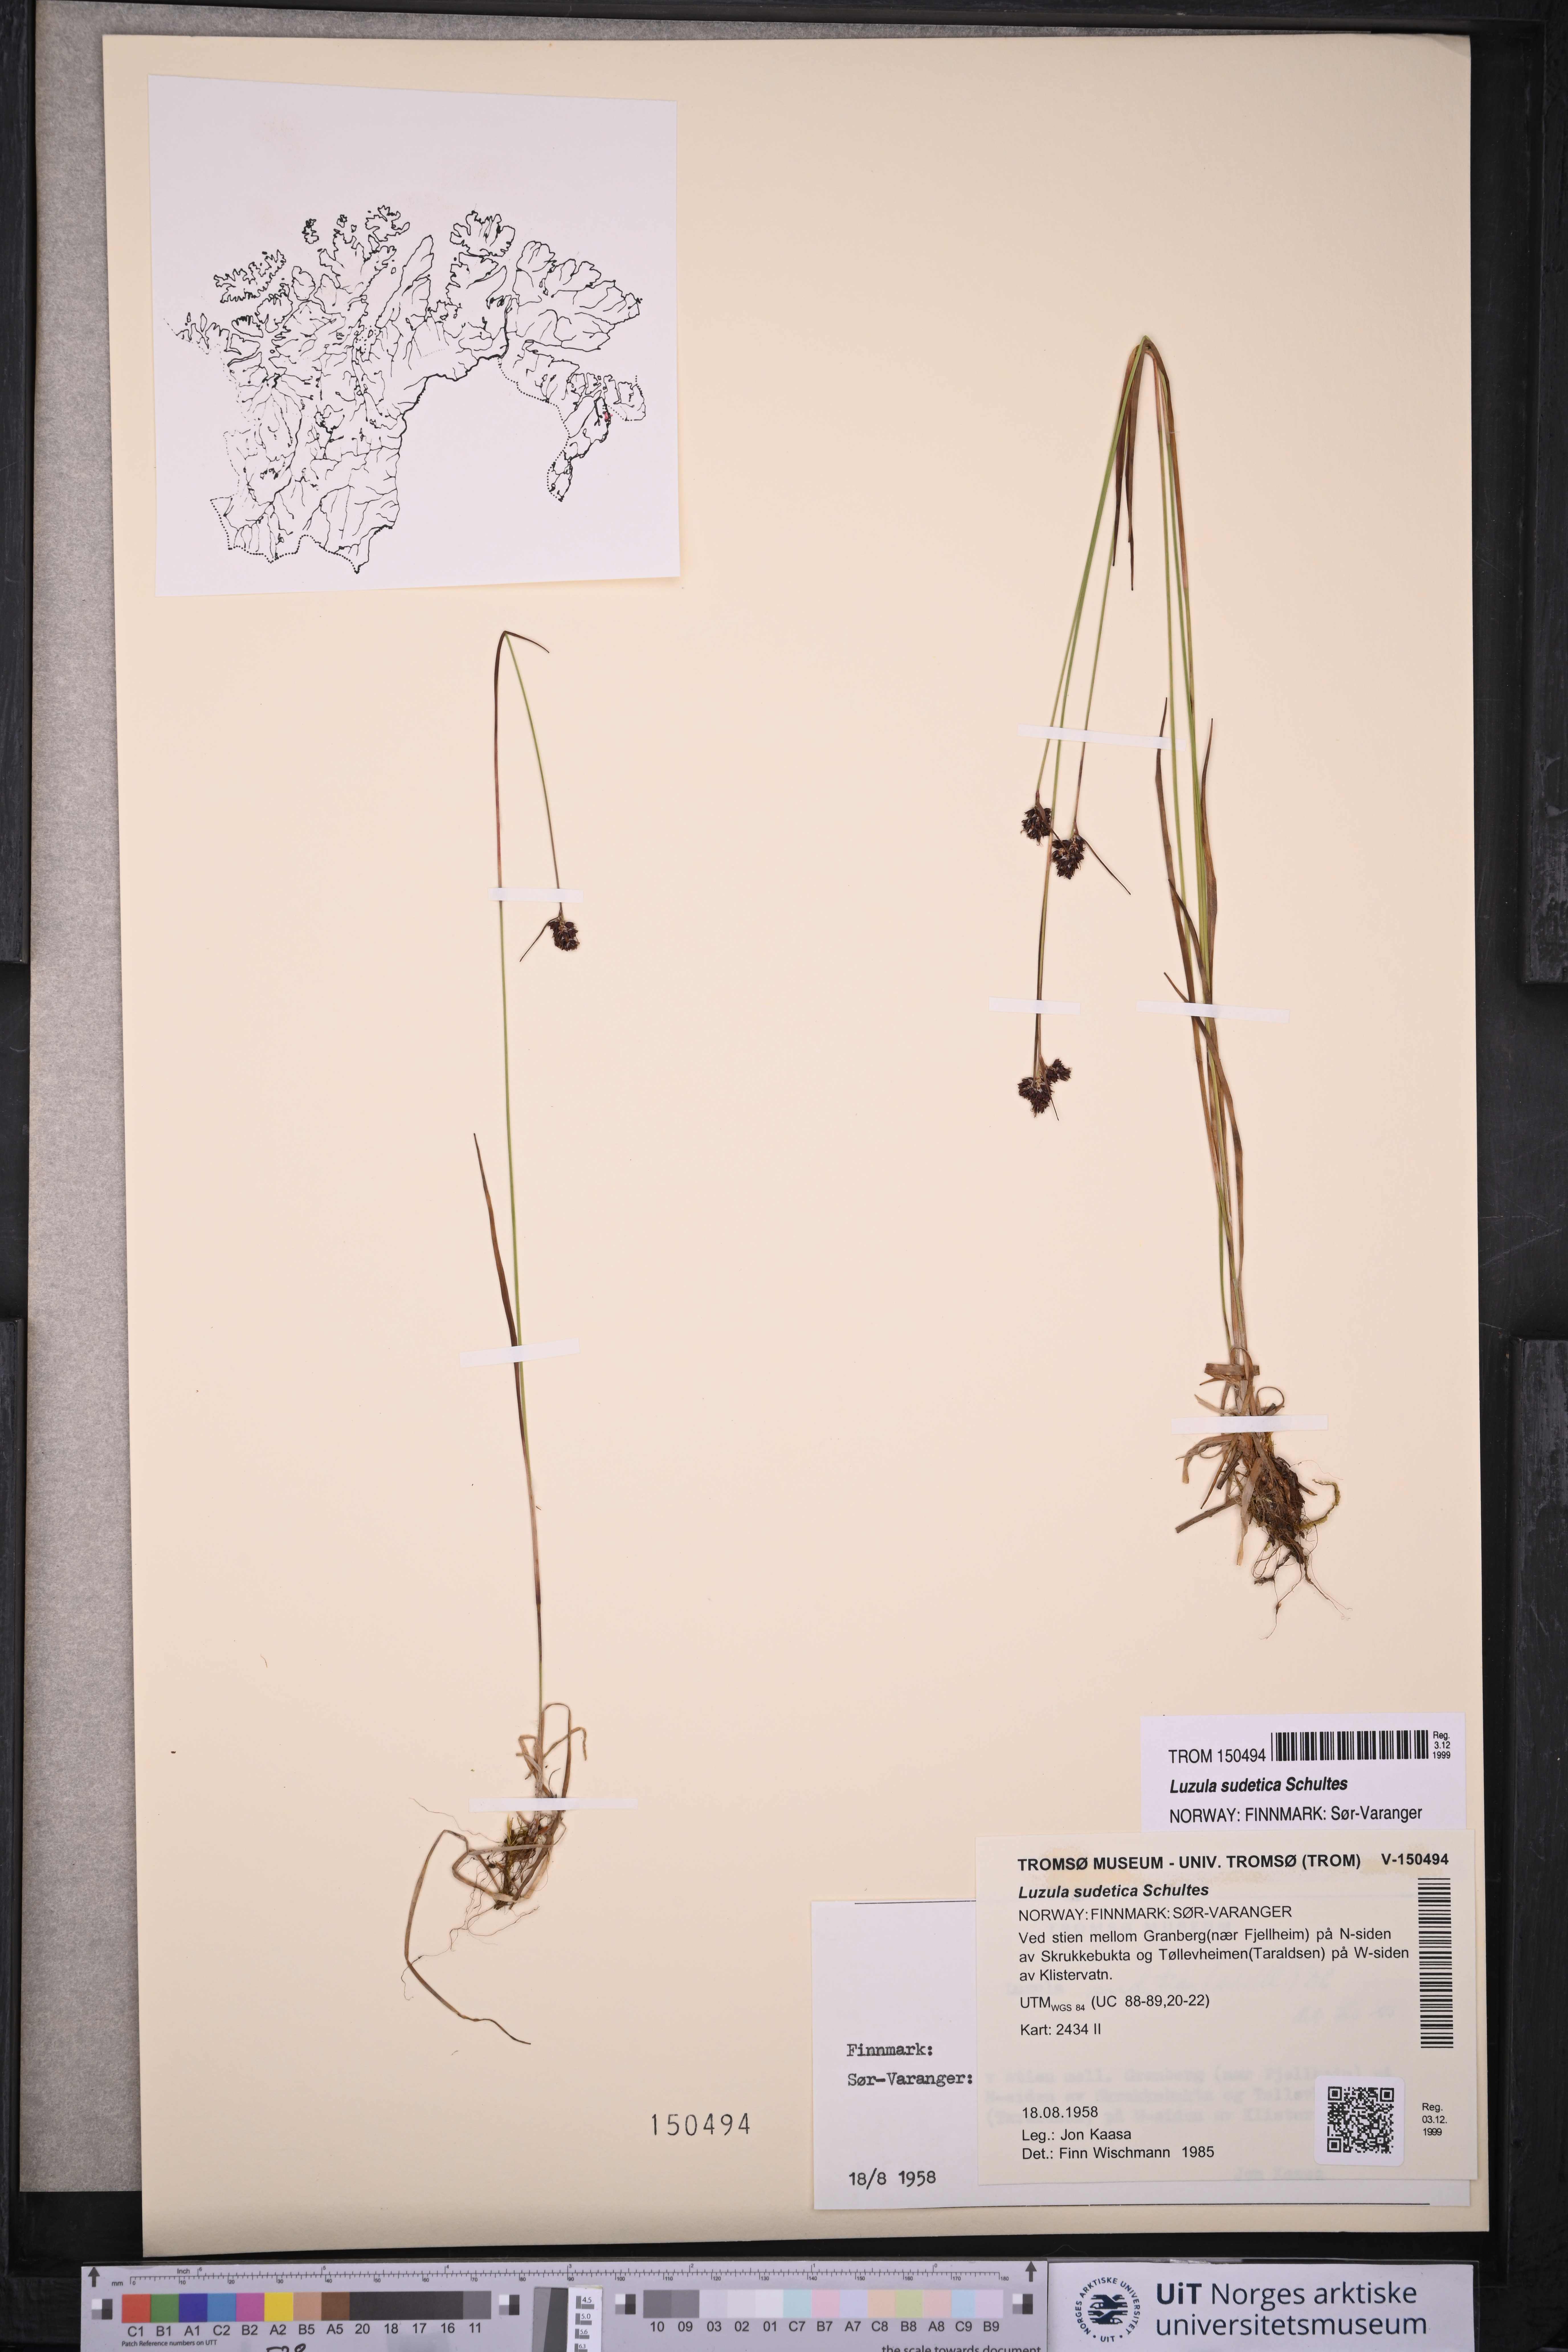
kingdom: Plantae
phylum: Tracheophyta
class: Liliopsida
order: Poales
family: Juncaceae
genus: Luzula
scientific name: Luzula sudetica
